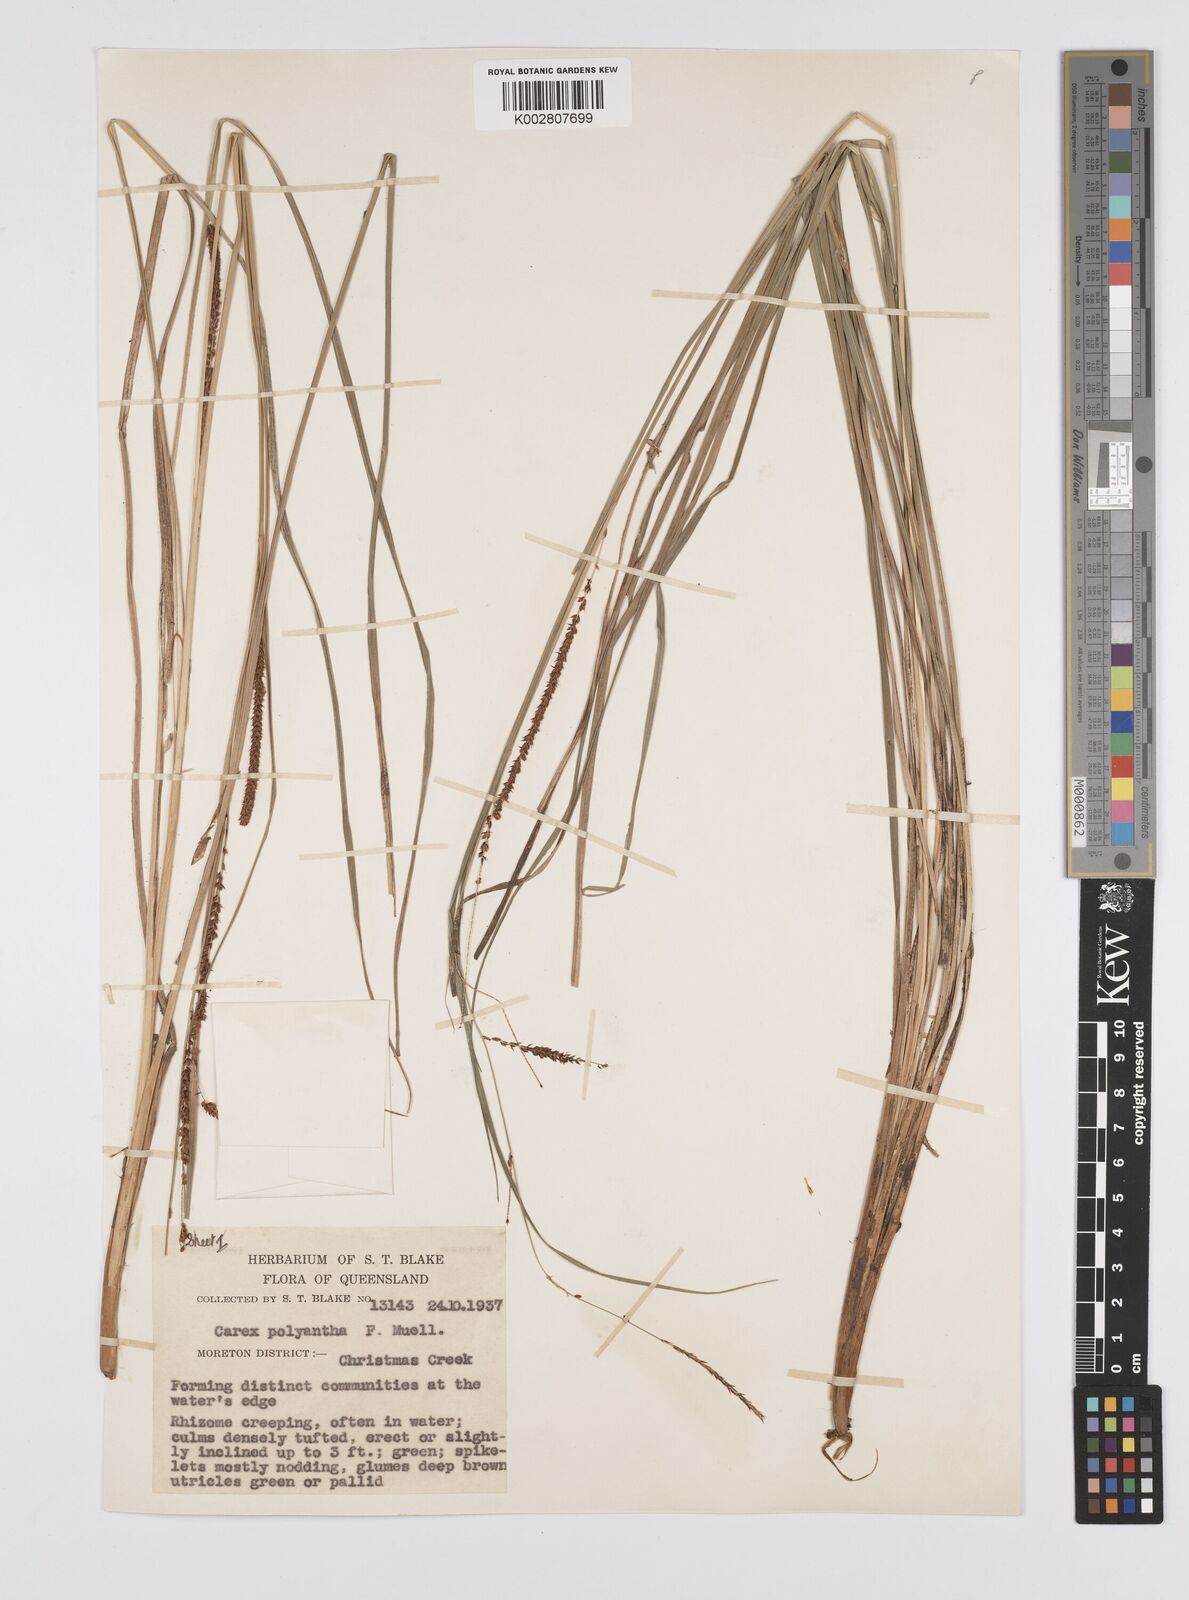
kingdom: Plantae
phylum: Tracheophyta
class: Liliopsida
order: Poales
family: Cyperaceae
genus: Carex
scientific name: Carex polyantha
